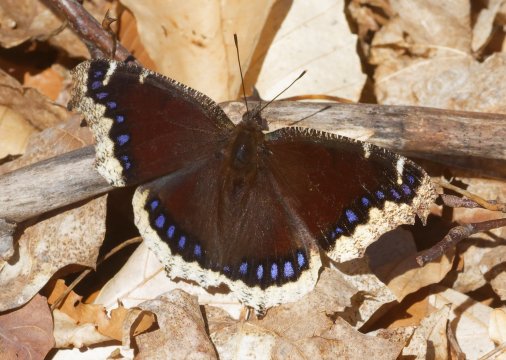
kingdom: Animalia
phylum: Arthropoda
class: Insecta
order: Lepidoptera
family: Nymphalidae
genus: Nymphalis
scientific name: Nymphalis antiopa
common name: Mourning Cloak
